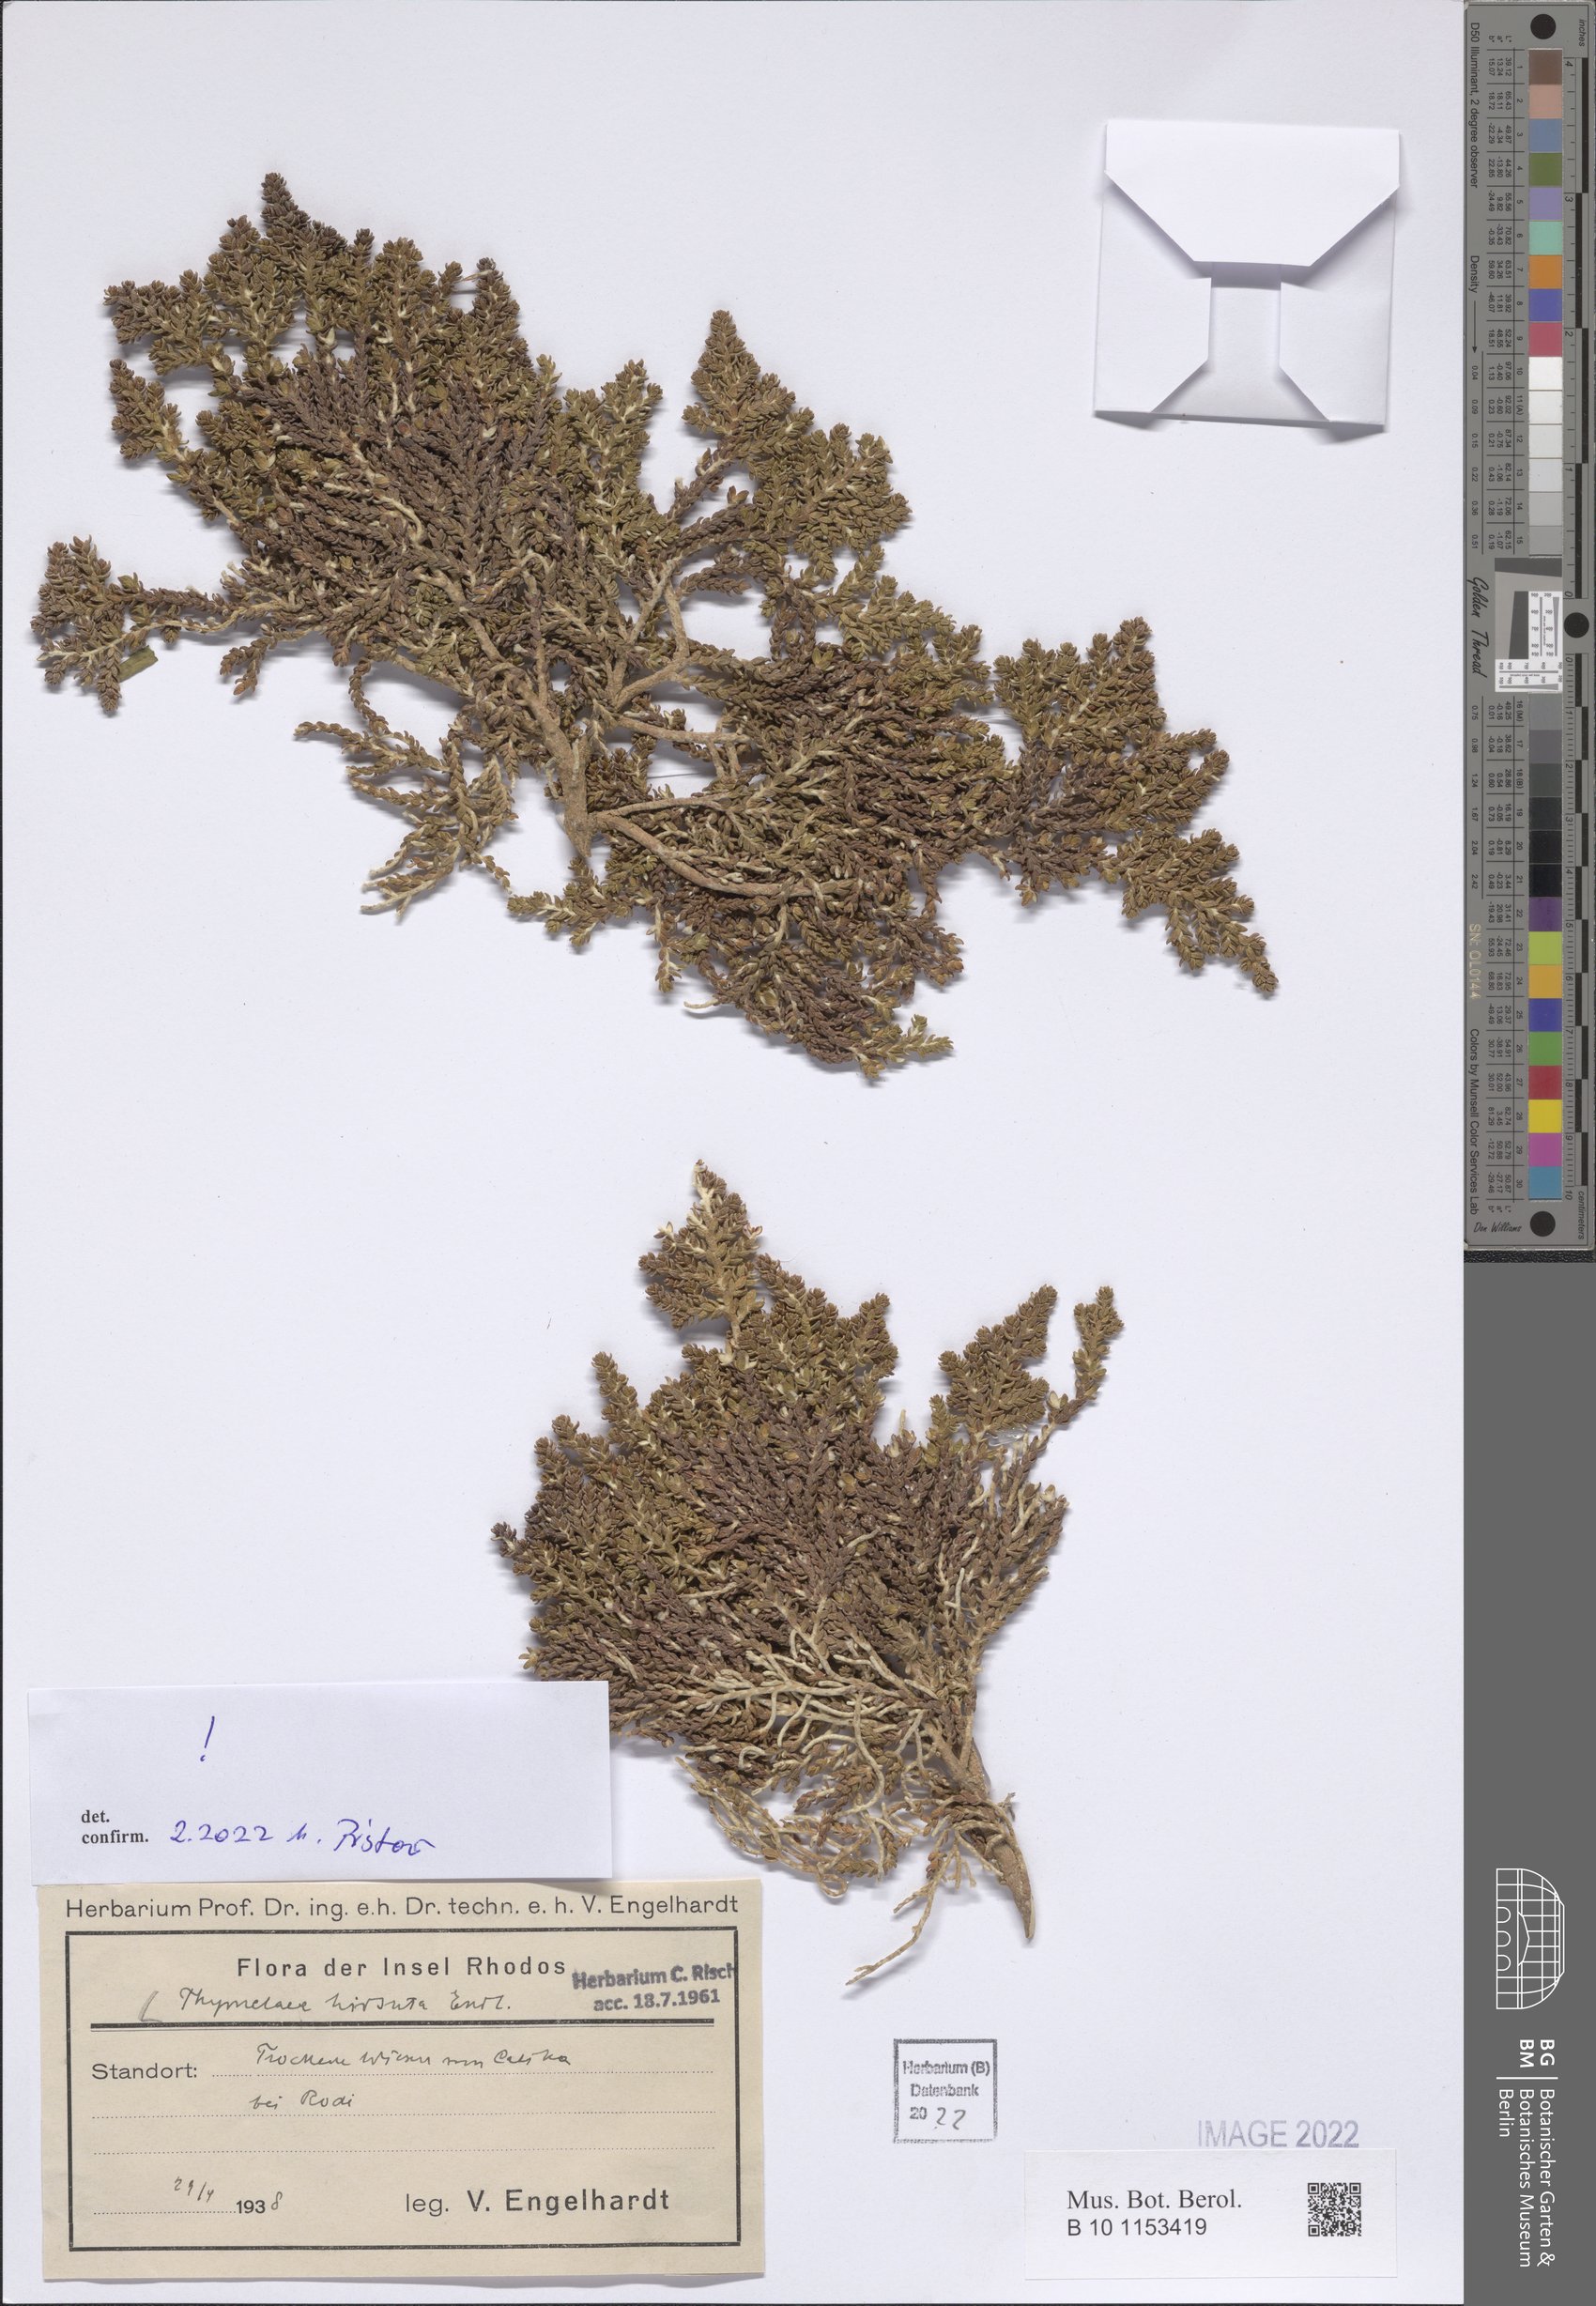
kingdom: Plantae
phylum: Tracheophyta
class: Magnoliopsida
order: Malvales
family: Thymelaeaceae
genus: Thymelaea
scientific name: Thymelaea hirsuta
